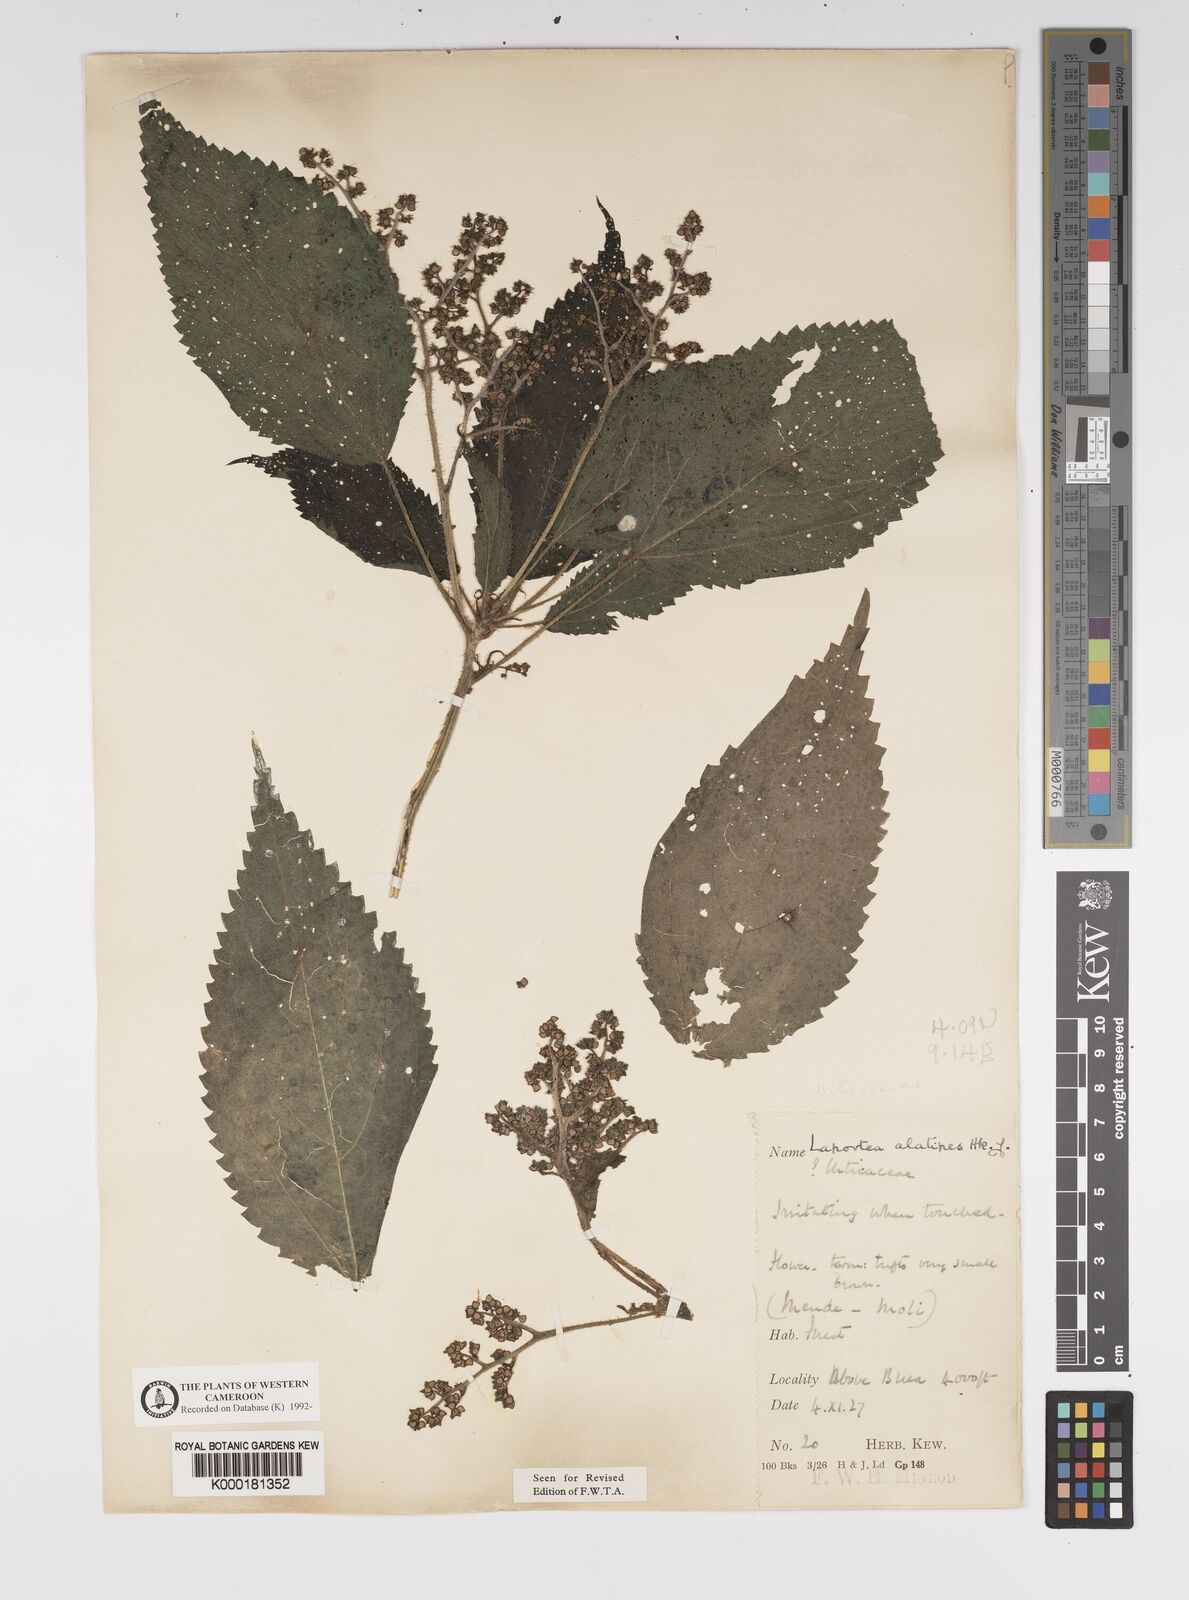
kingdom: Plantae
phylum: Tracheophyta
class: Magnoliopsida
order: Rosales
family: Urticaceae
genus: Laportea
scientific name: Laportea alatipes
